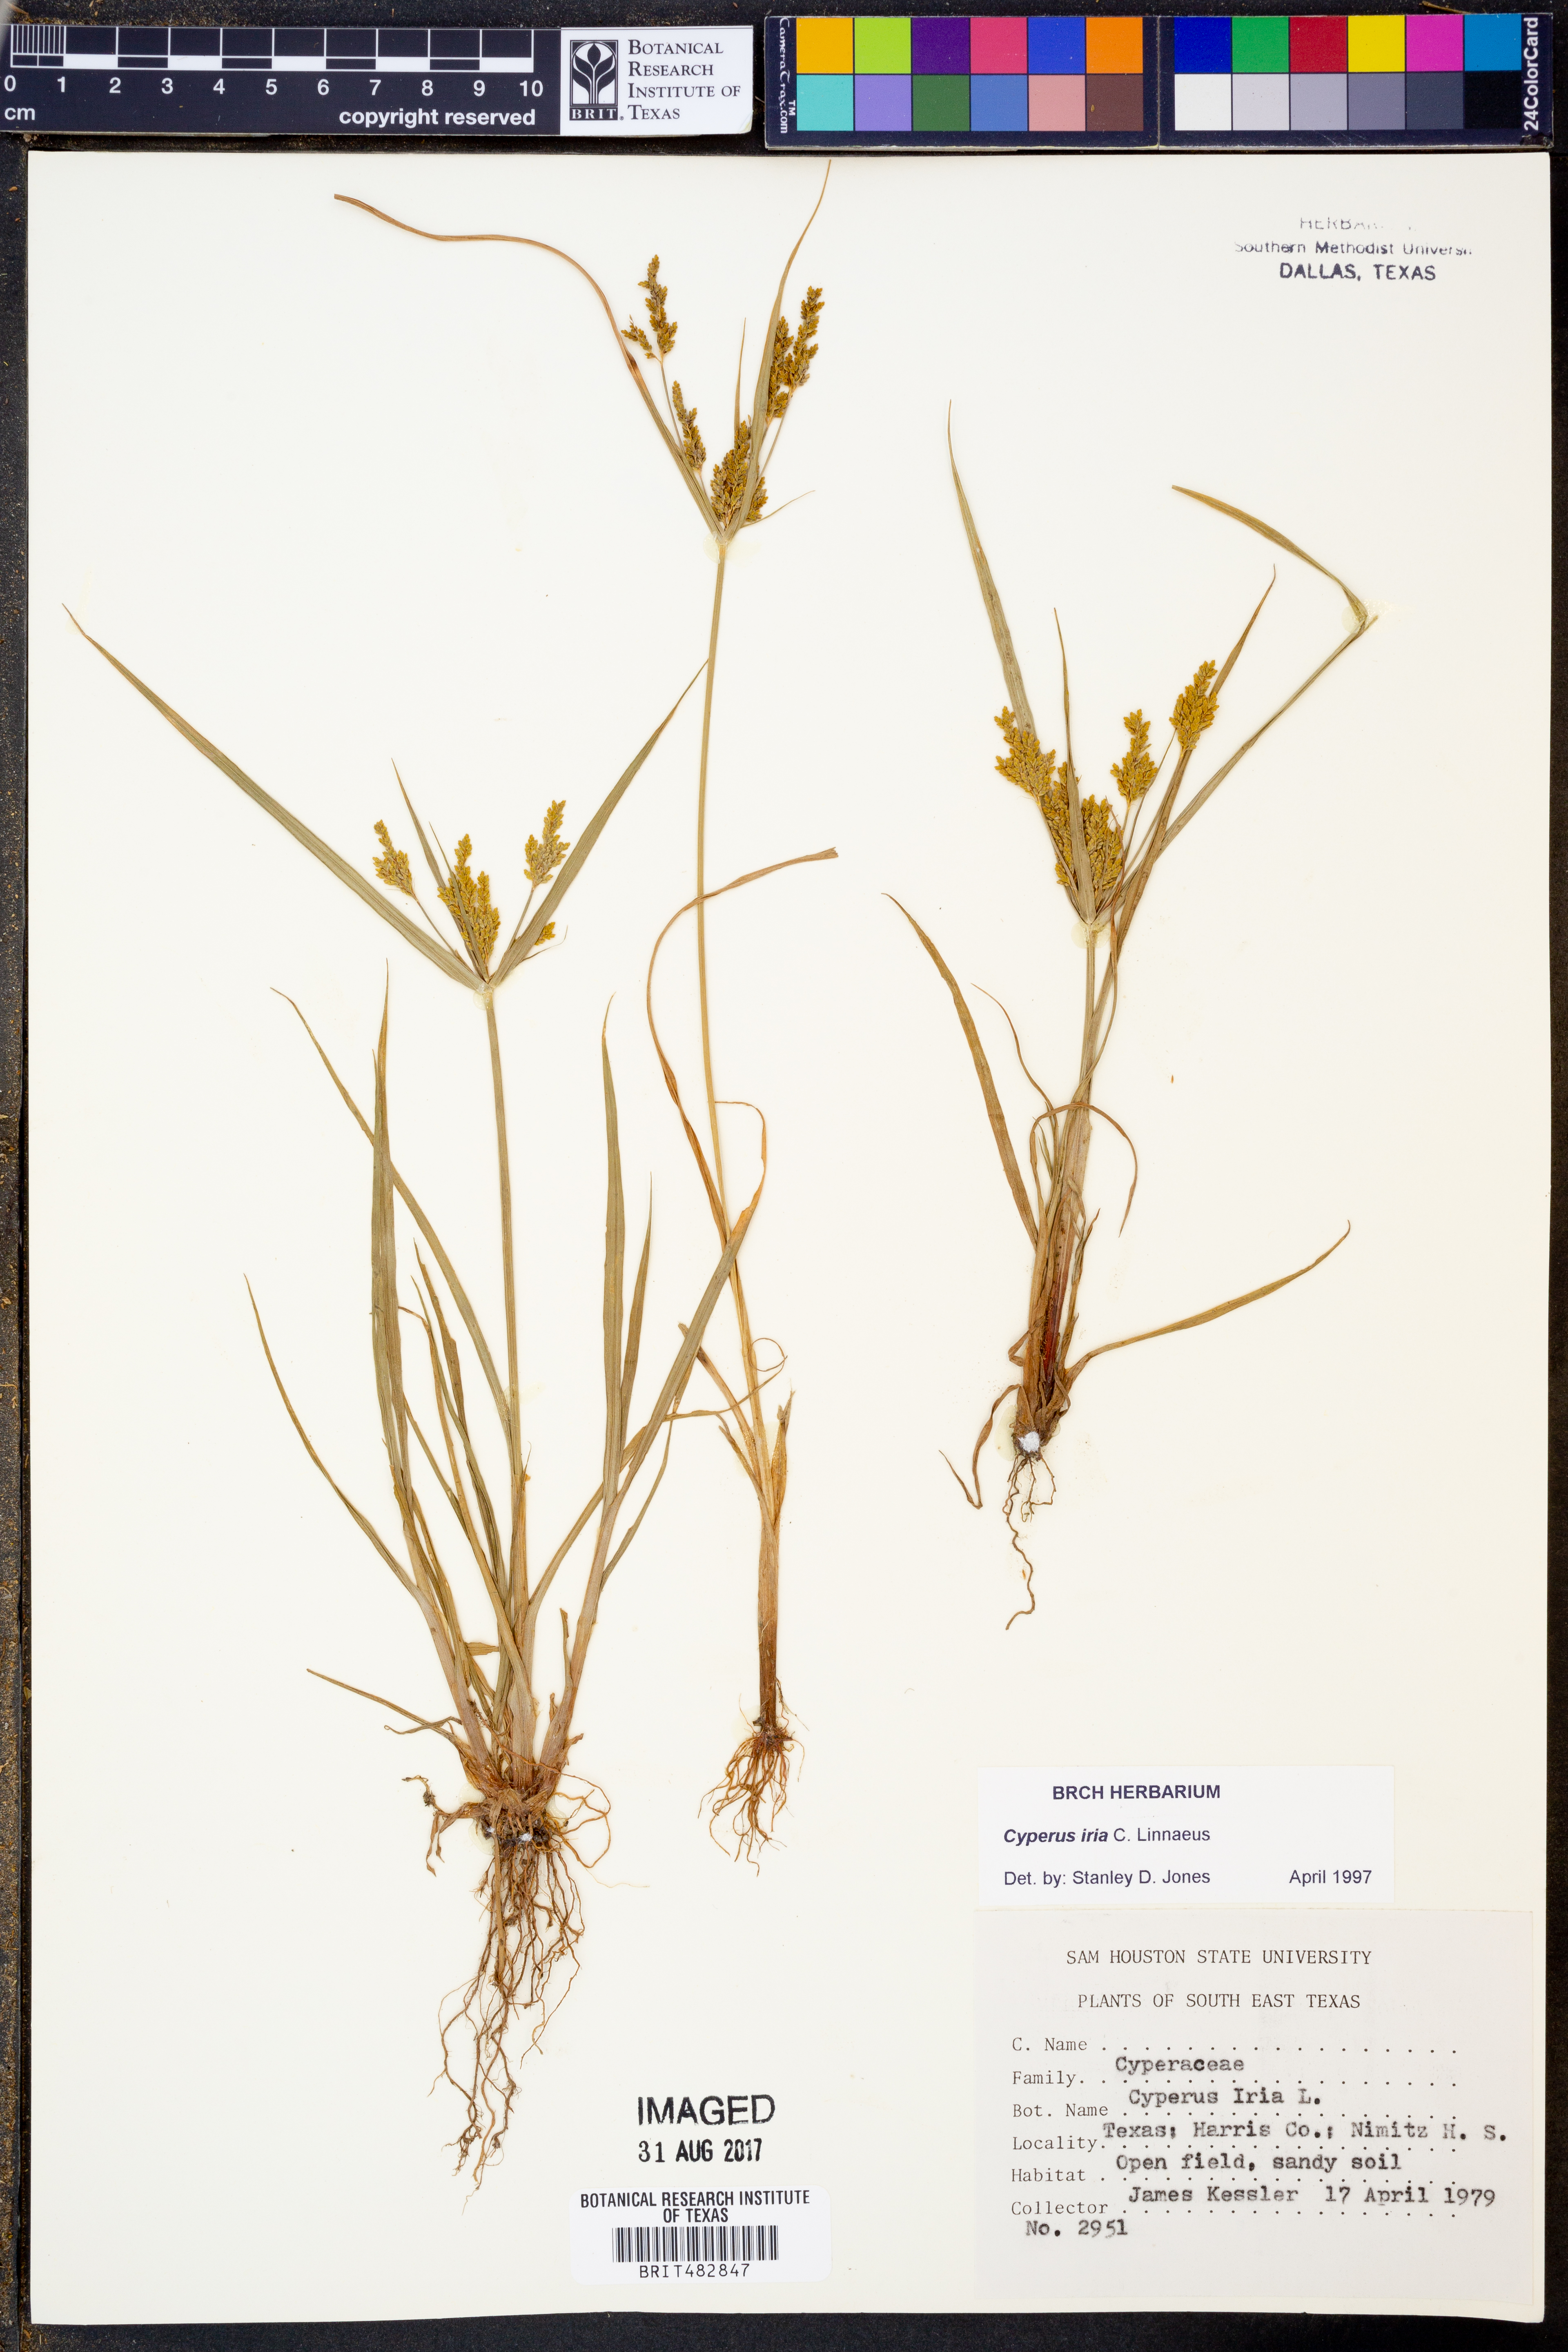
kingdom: Plantae
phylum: Tracheophyta
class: Liliopsida
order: Poales
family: Cyperaceae
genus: Cyperus
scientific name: Cyperus iria
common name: Ricefield flatsedge
